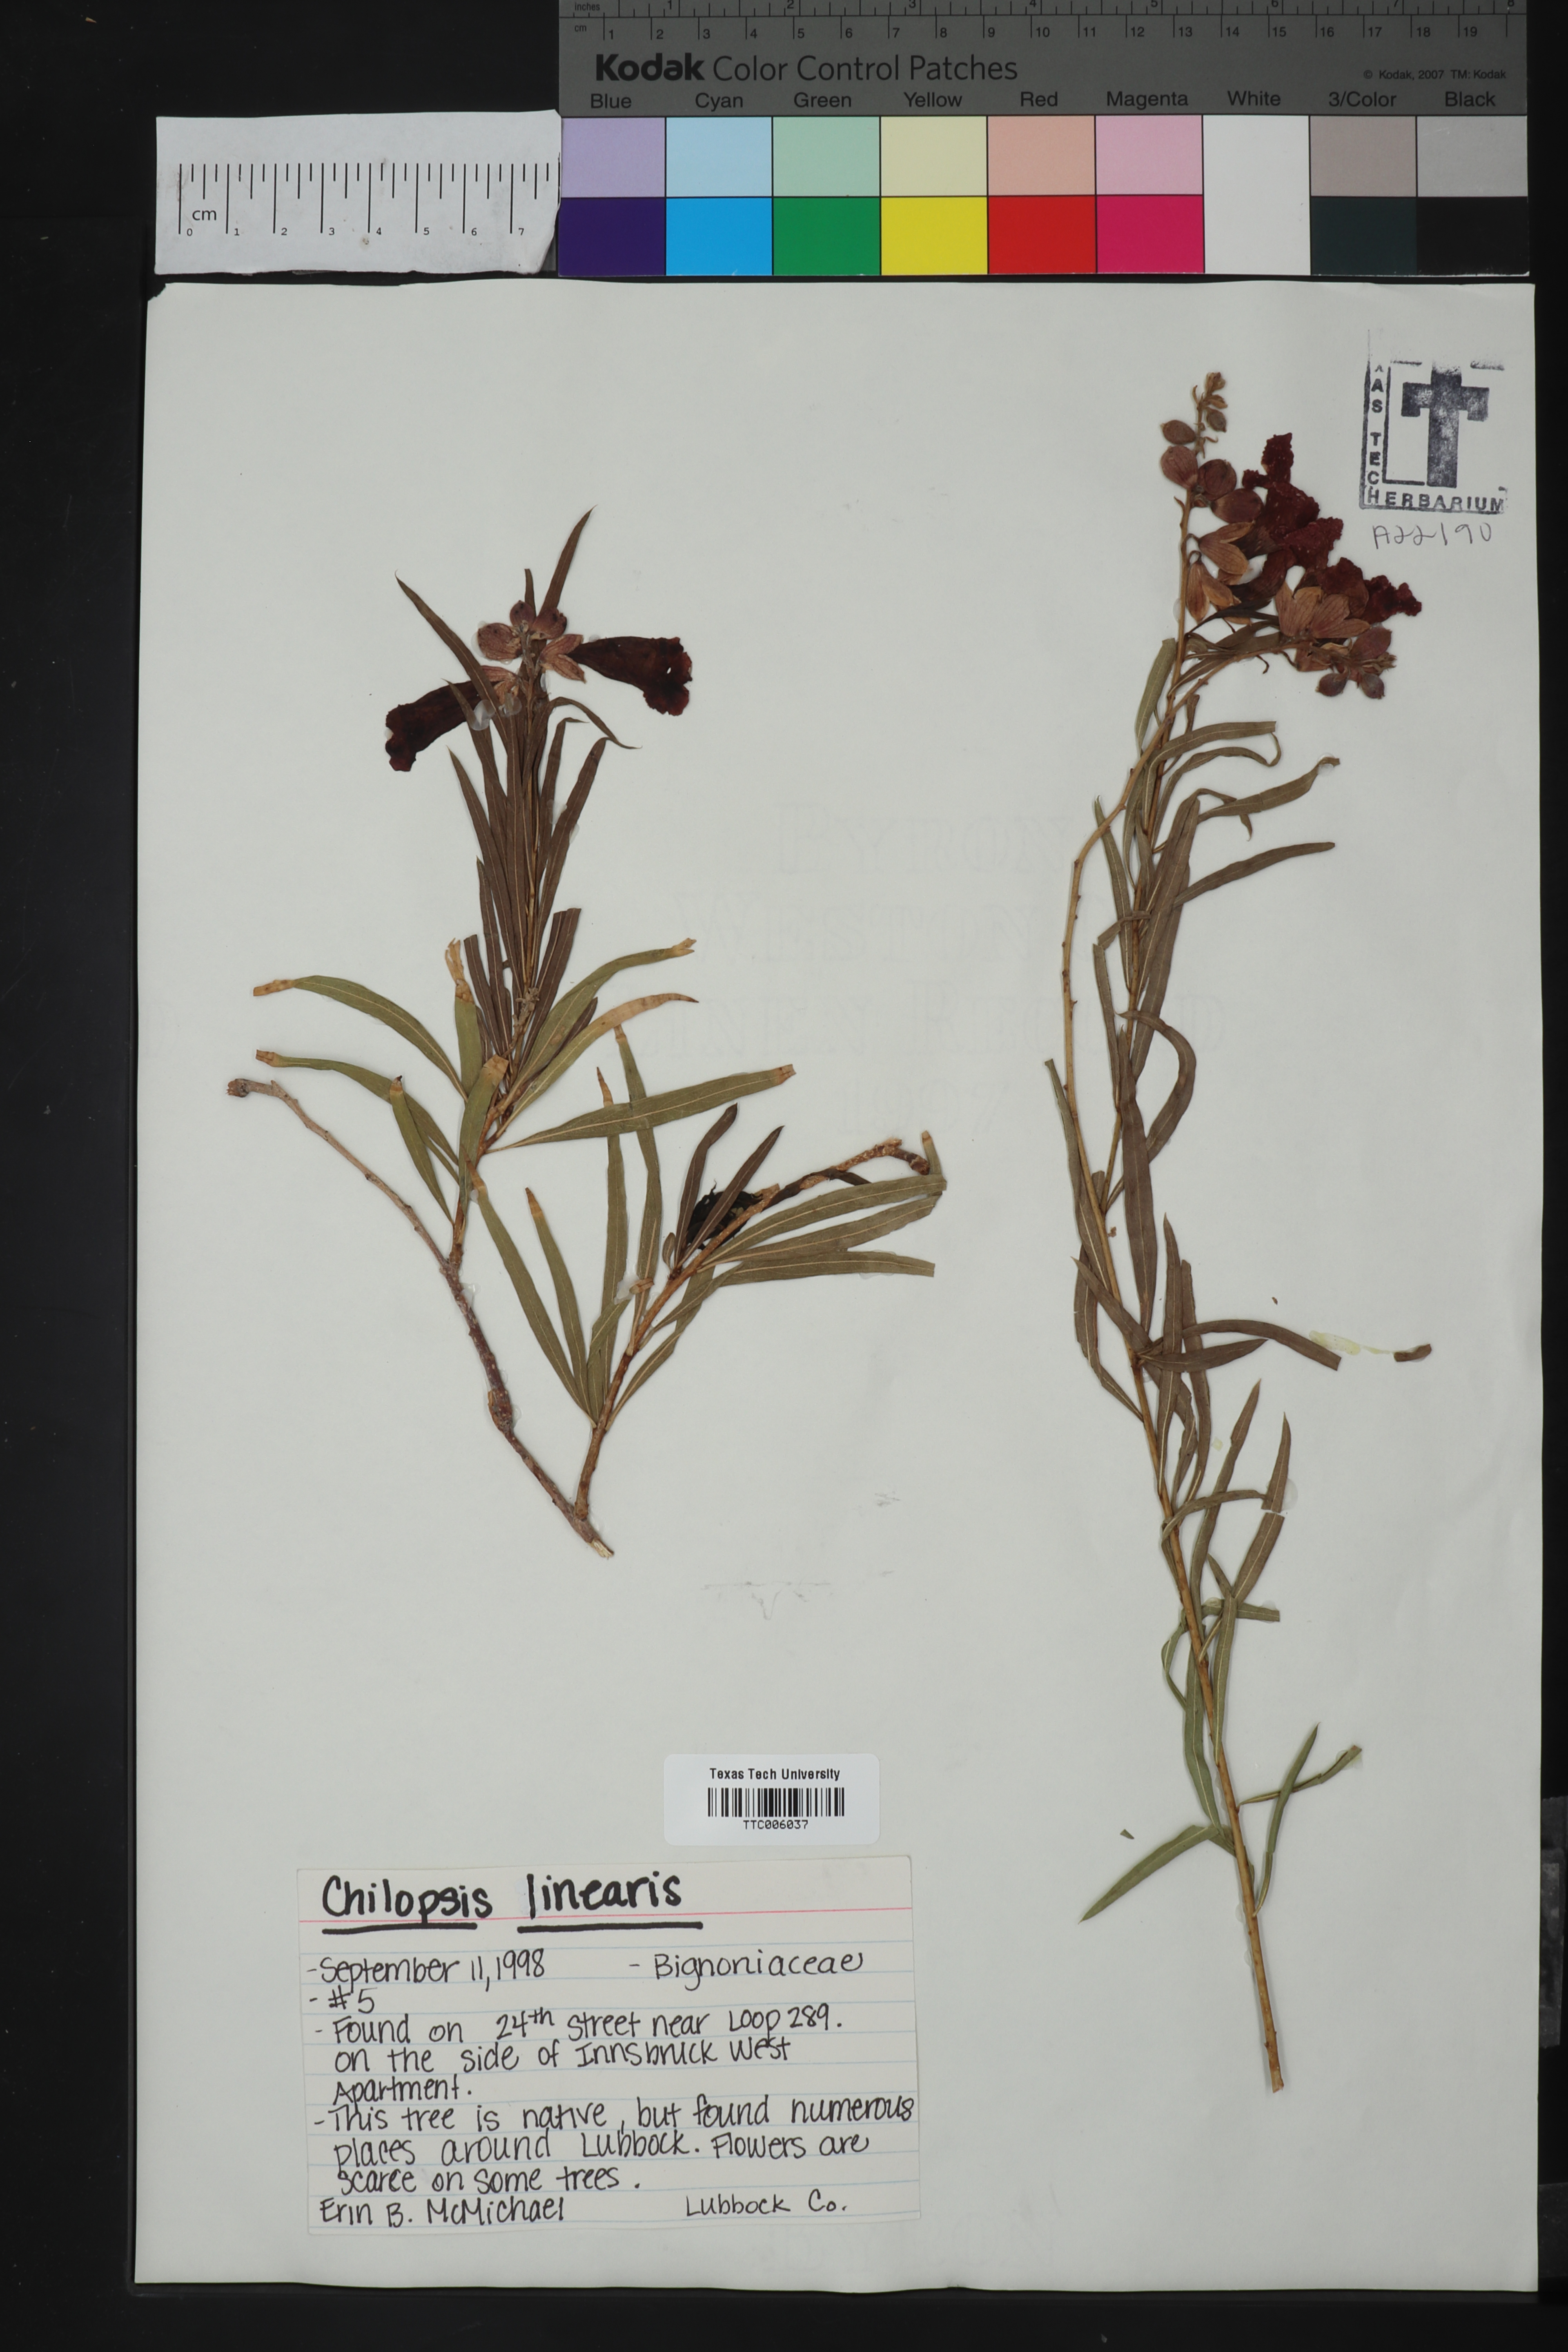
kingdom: Plantae
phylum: Tracheophyta
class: Magnoliopsida
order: Lamiales
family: Bignoniaceae
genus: Chilopsis
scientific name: Chilopsis linearis
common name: Desert-willow
